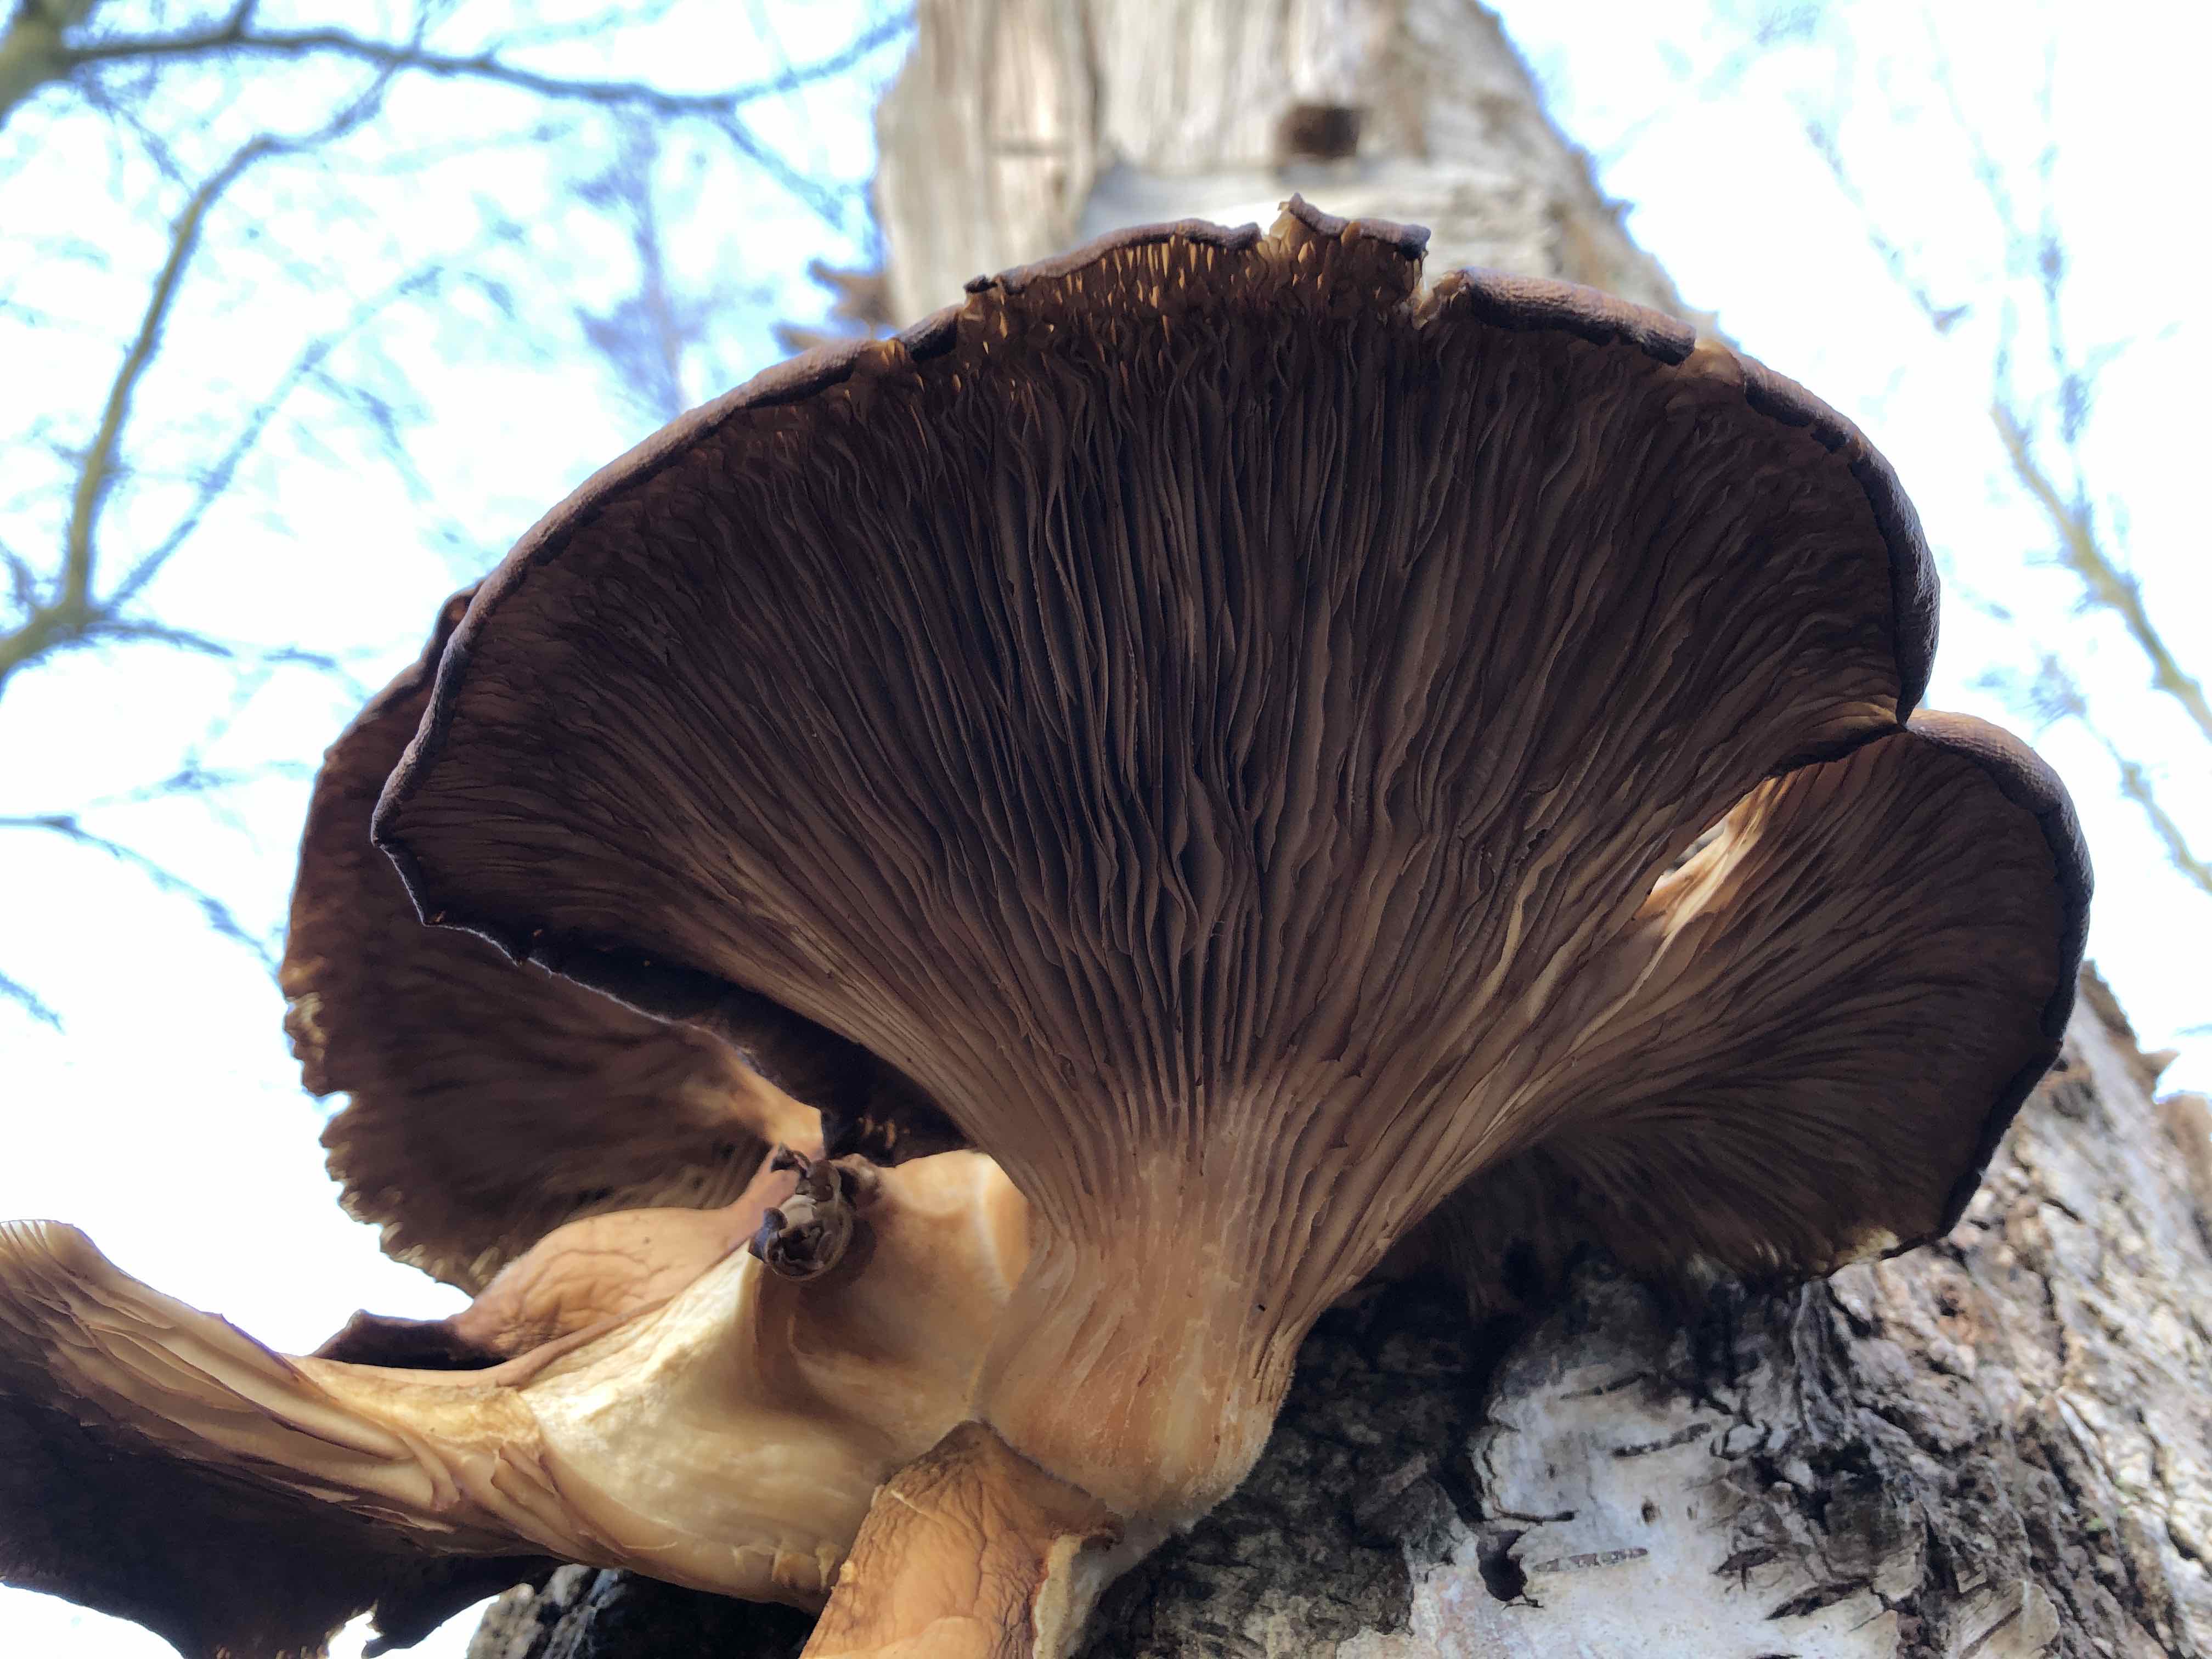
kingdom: Fungi
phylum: Basidiomycota
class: Agaricomycetes
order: Agaricales
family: Pleurotaceae
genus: Pleurotus
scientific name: Pleurotus ostreatus
